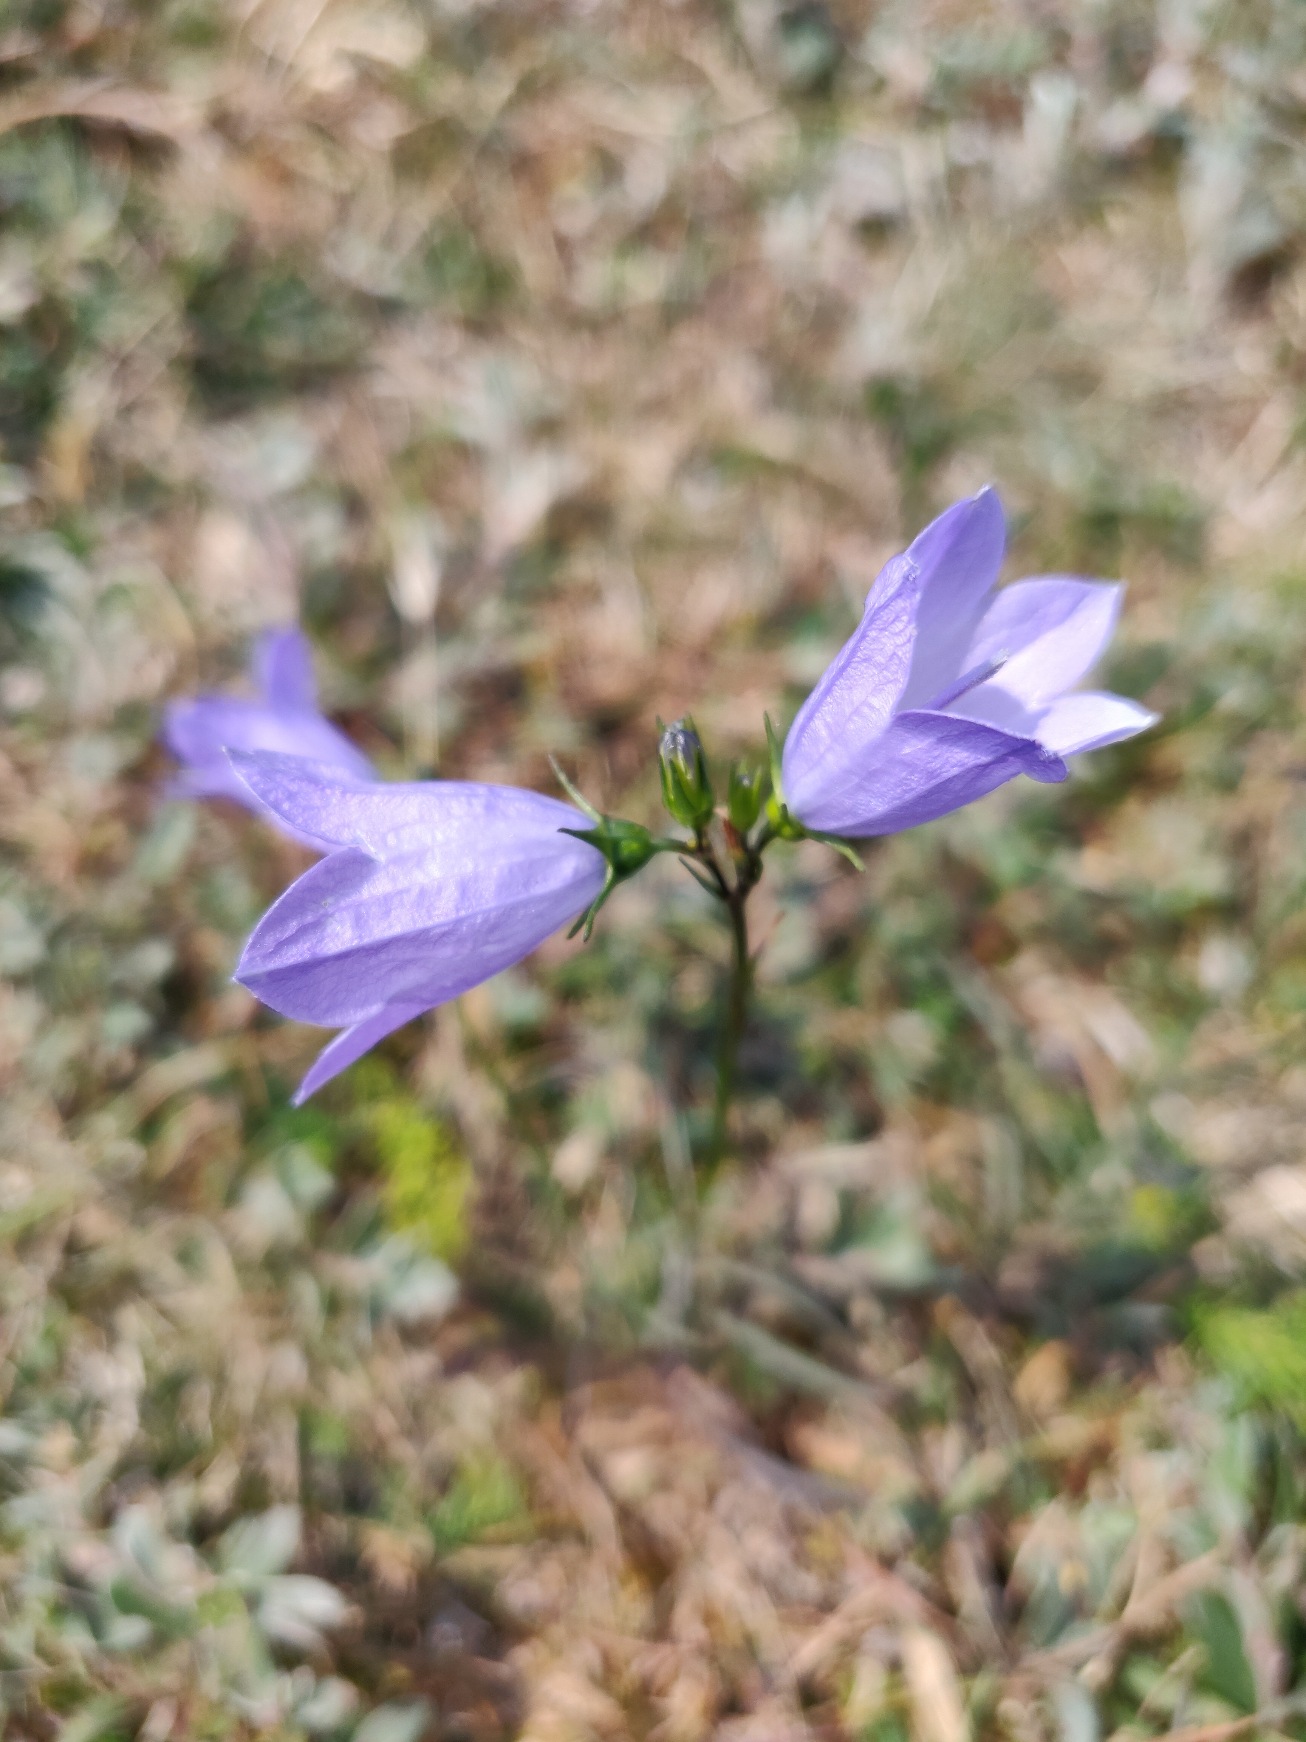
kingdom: Plantae
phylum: Tracheophyta
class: Magnoliopsida
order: Asterales
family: Campanulaceae
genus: Campanula
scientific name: Campanula rotundifolia
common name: Liden klokke
